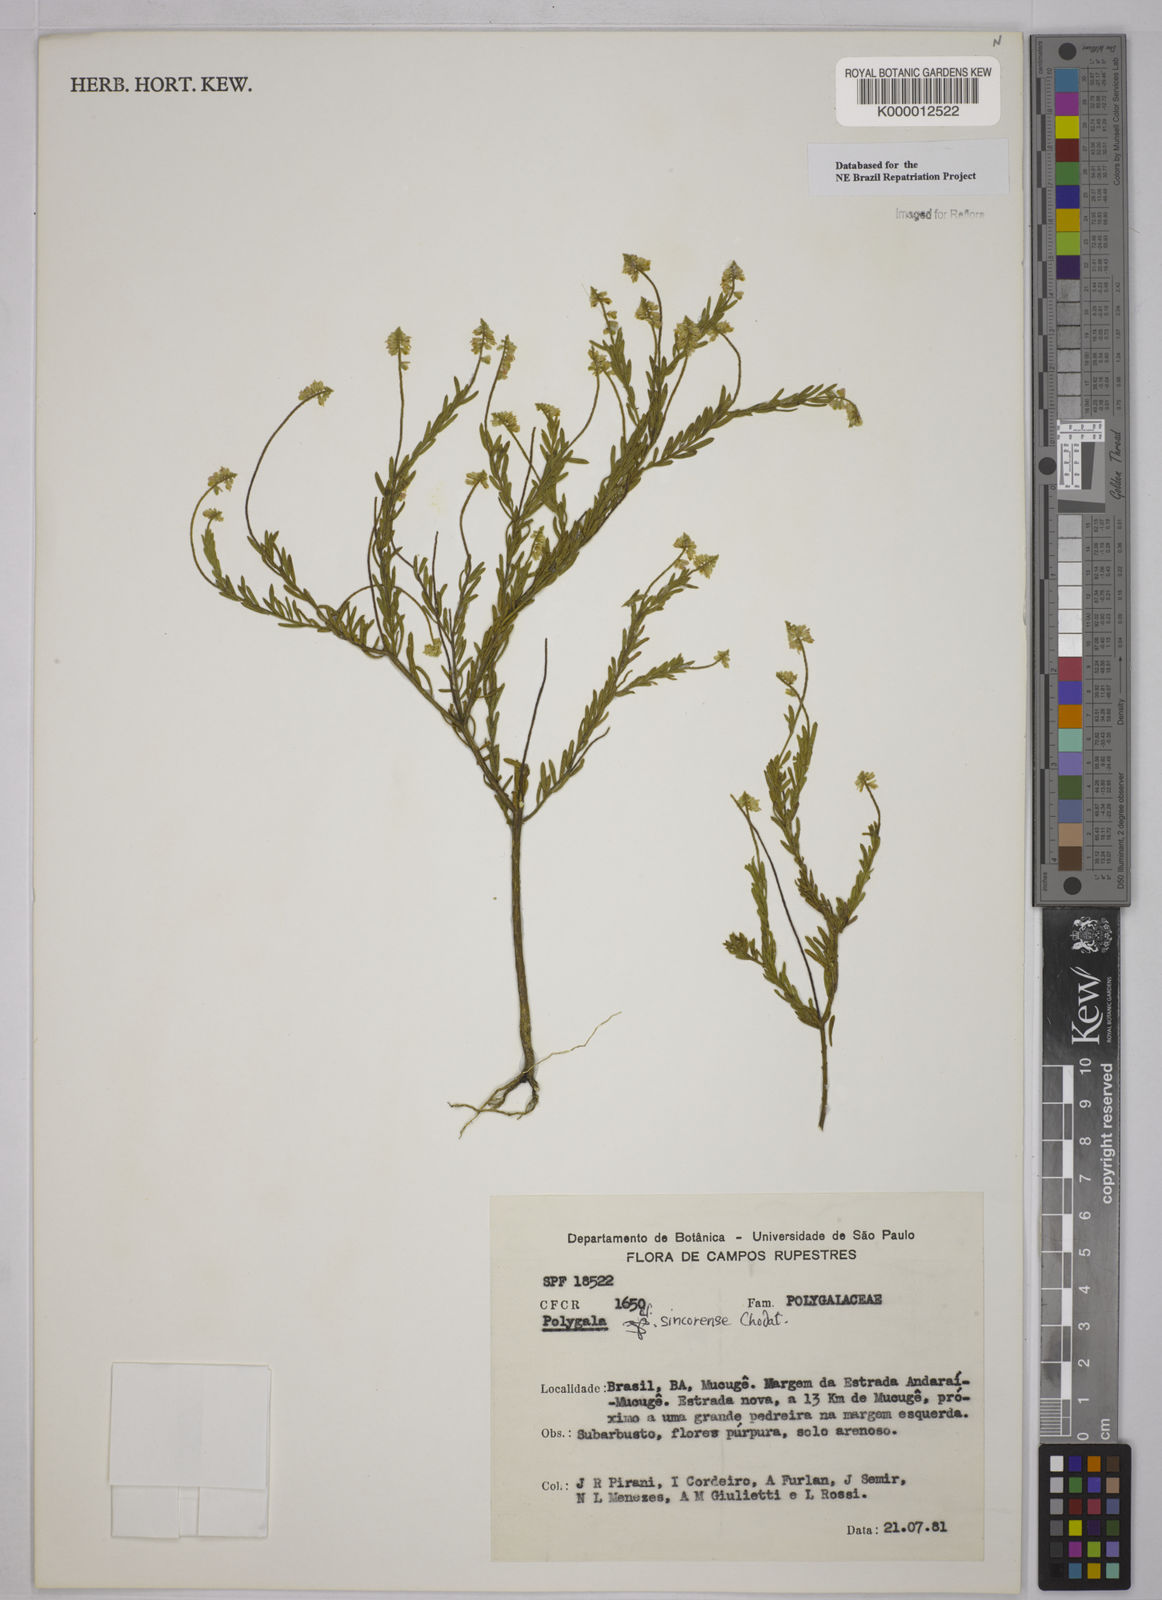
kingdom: Plantae
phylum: Tracheophyta
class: Magnoliopsida
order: Fabales
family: Polygalaceae
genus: Polygala
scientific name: Polygala tuberculata
